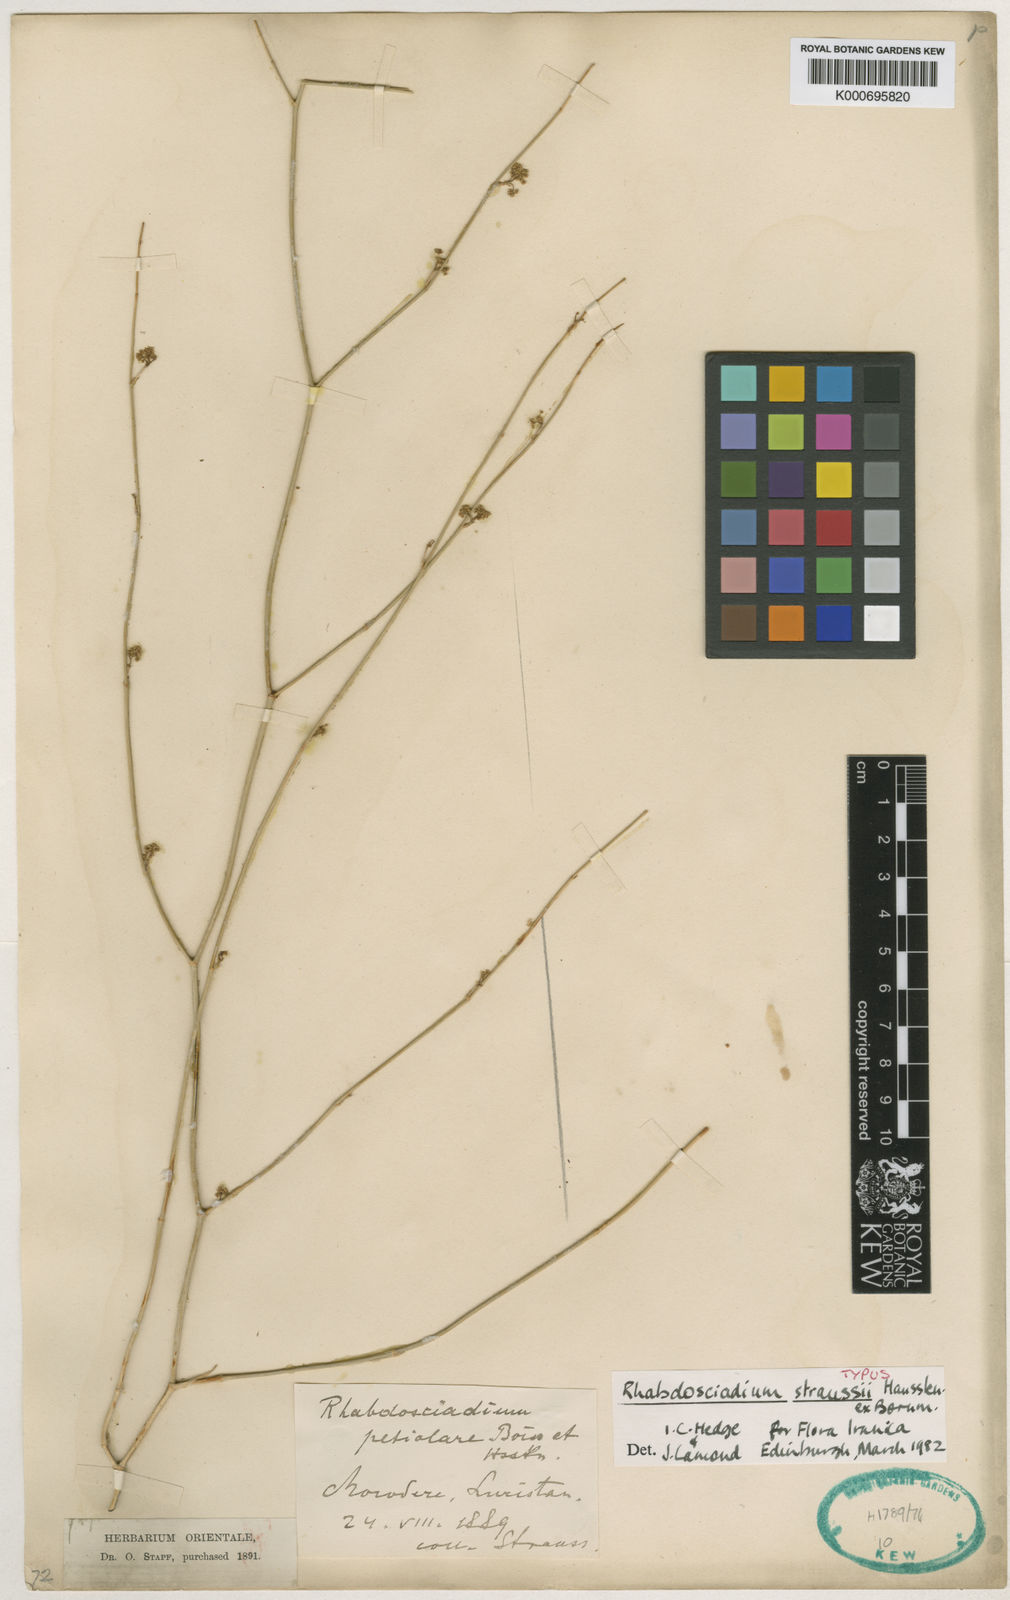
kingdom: Plantae
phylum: Tracheophyta
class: Magnoliopsida
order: Apiales
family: Apiaceae
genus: Rhabdosciadium
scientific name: Rhabdosciadium straussii
